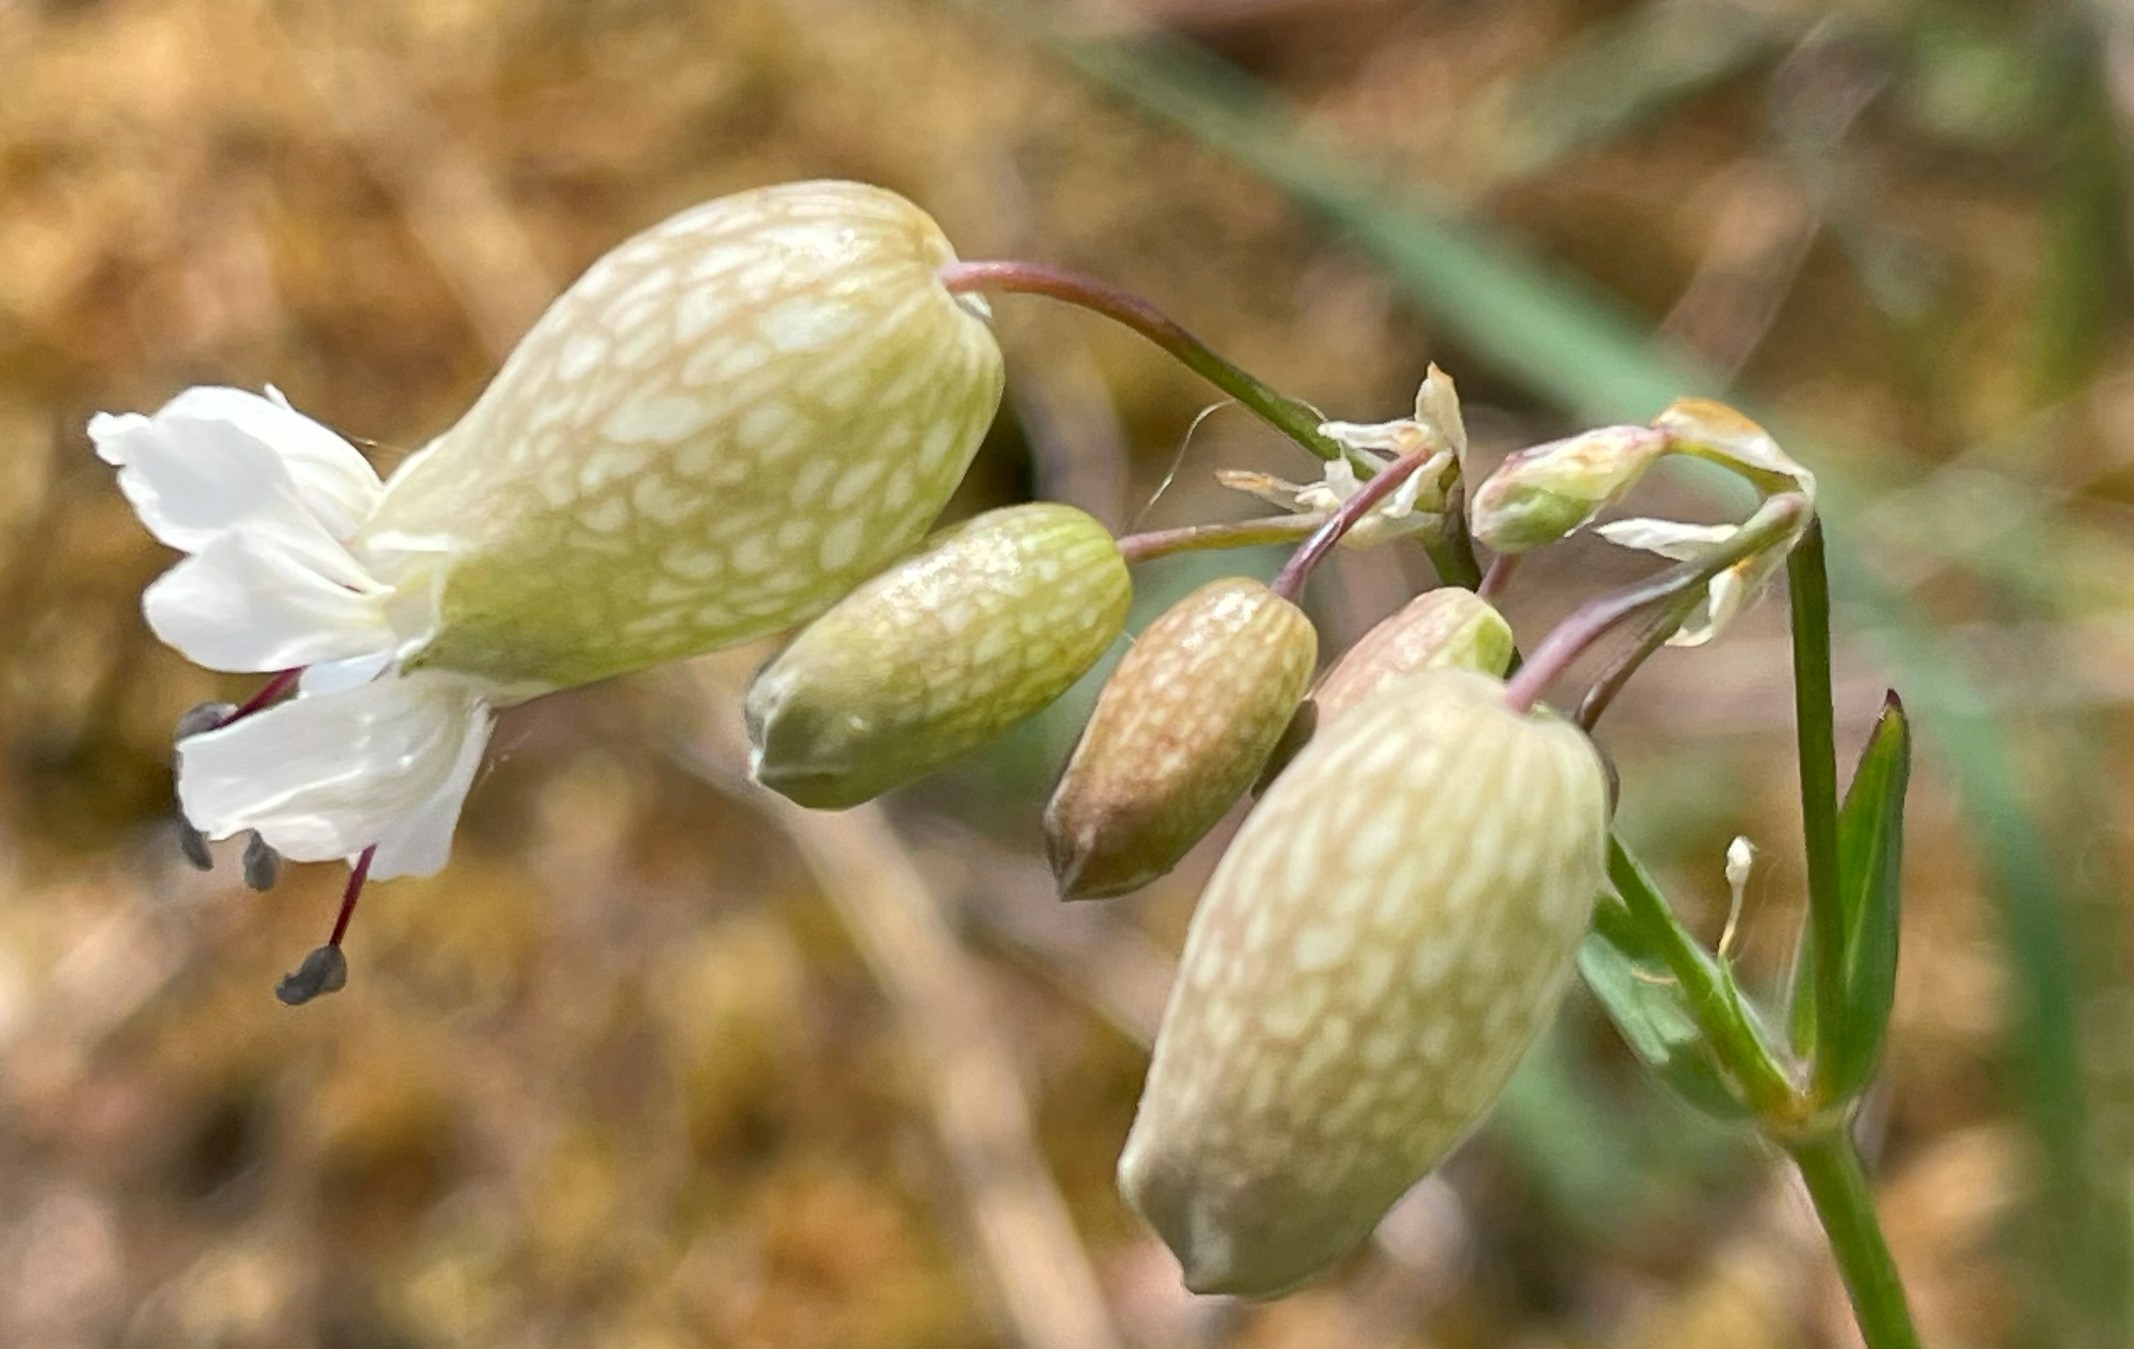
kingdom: Plantae
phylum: Tracheophyta
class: Magnoliopsida
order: Caryophyllales
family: Caryophyllaceae
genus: Silene
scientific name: Silene vulgaris
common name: Blæresmælde
